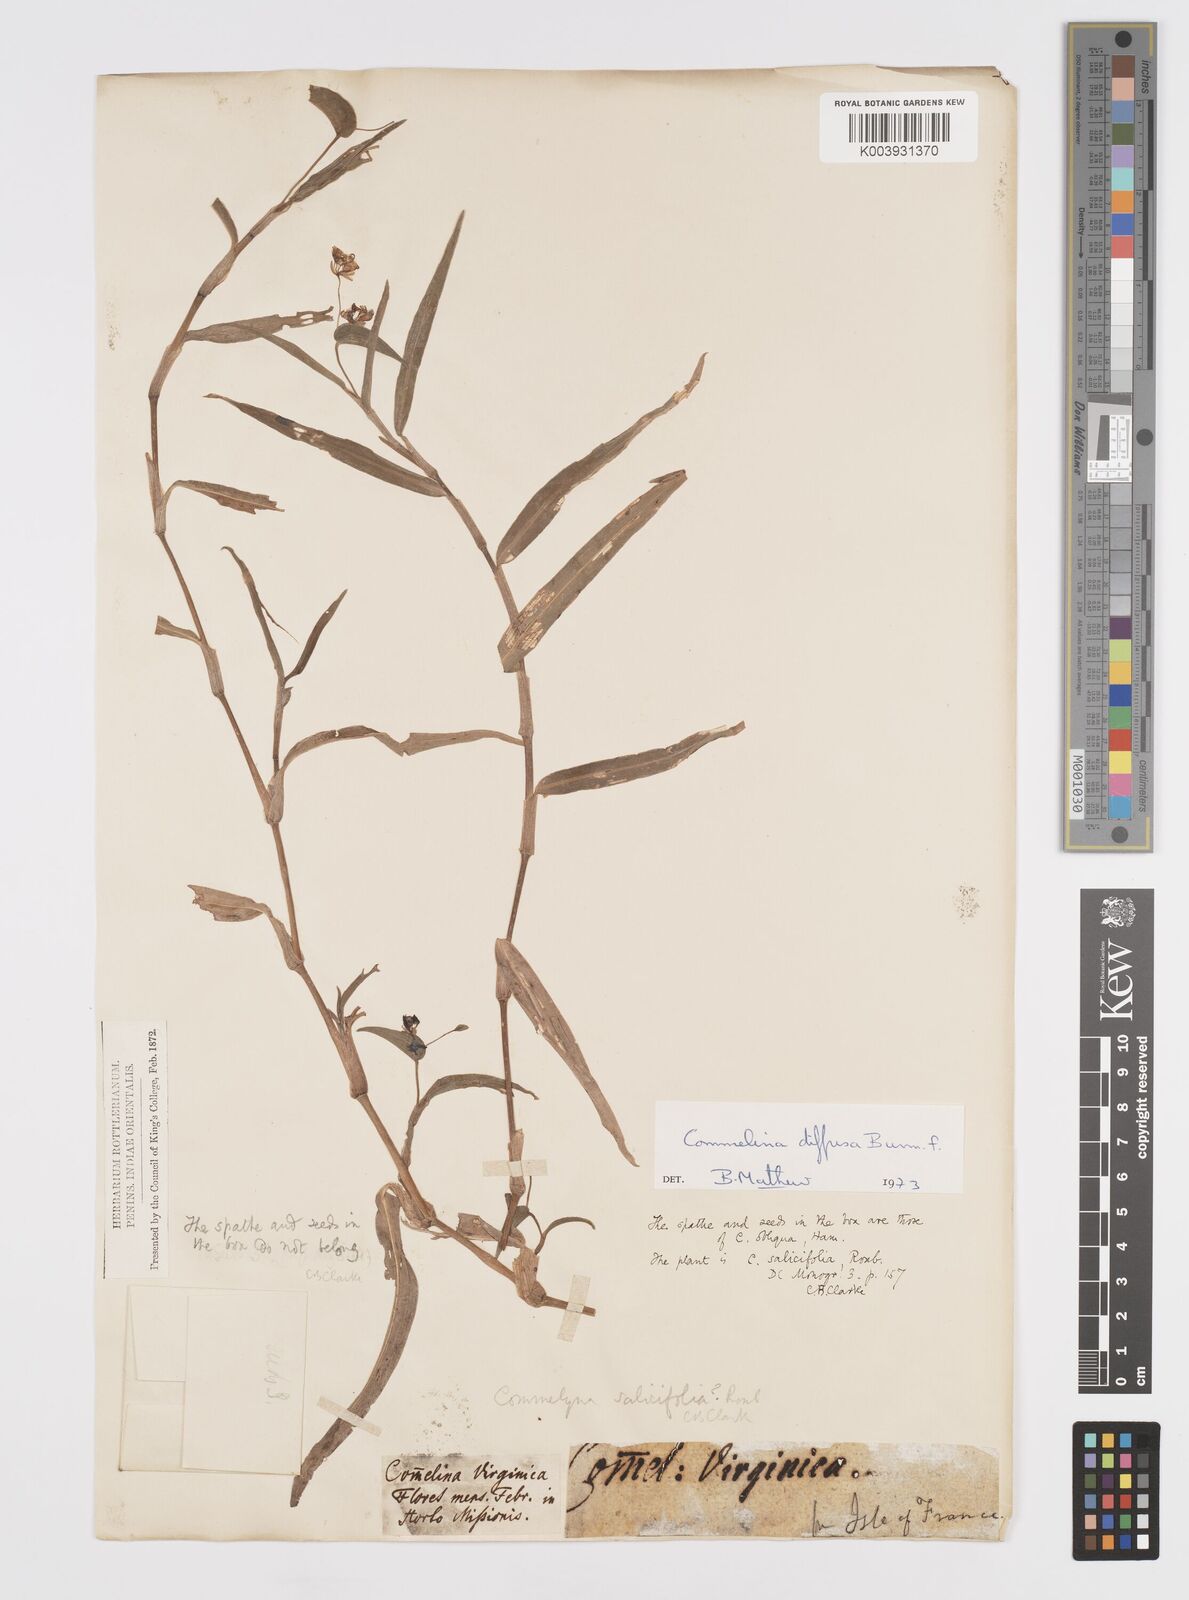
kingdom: Plantae
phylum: Tracheophyta
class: Liliopsida
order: Commelinales
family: Commelinaceae
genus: Murdannia
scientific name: Murdannia nudiflora
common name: Nakedstem dewflower
